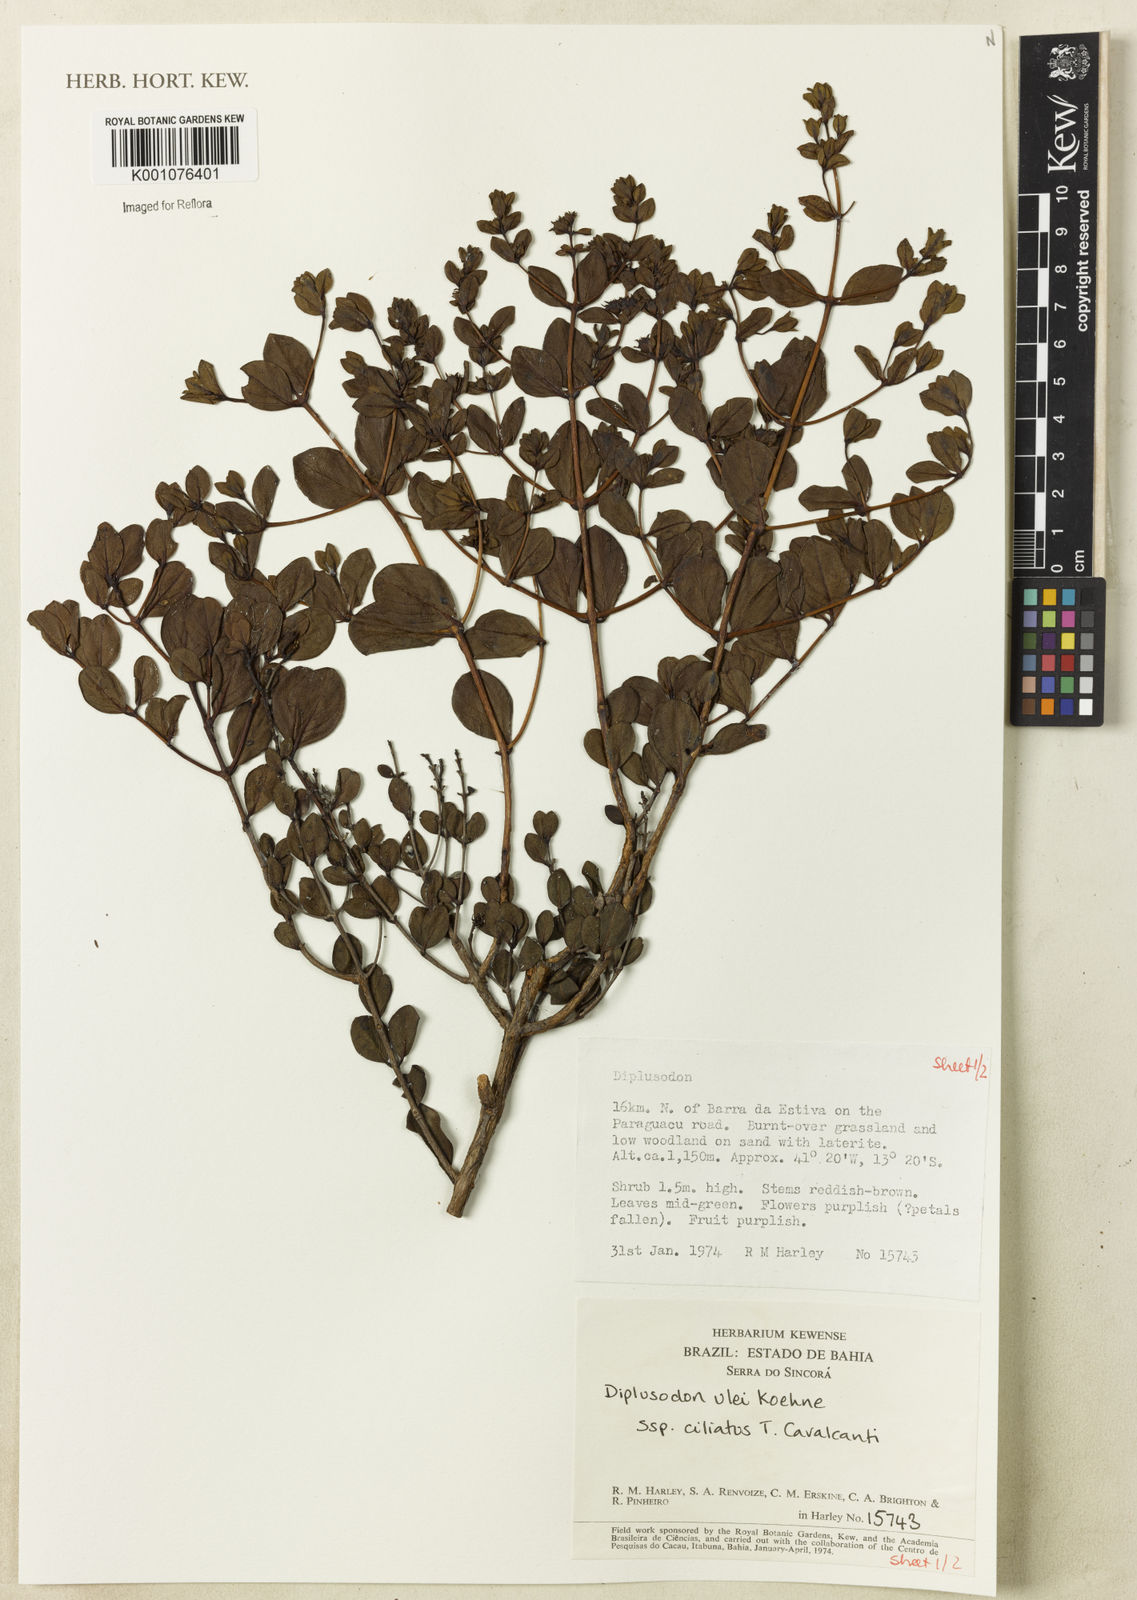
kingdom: Plantae
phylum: Tracheophyta
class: Magnoliopsida
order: Myrtales
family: Lythraceae
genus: Diplusodon
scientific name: Diplusodon ciliatus
